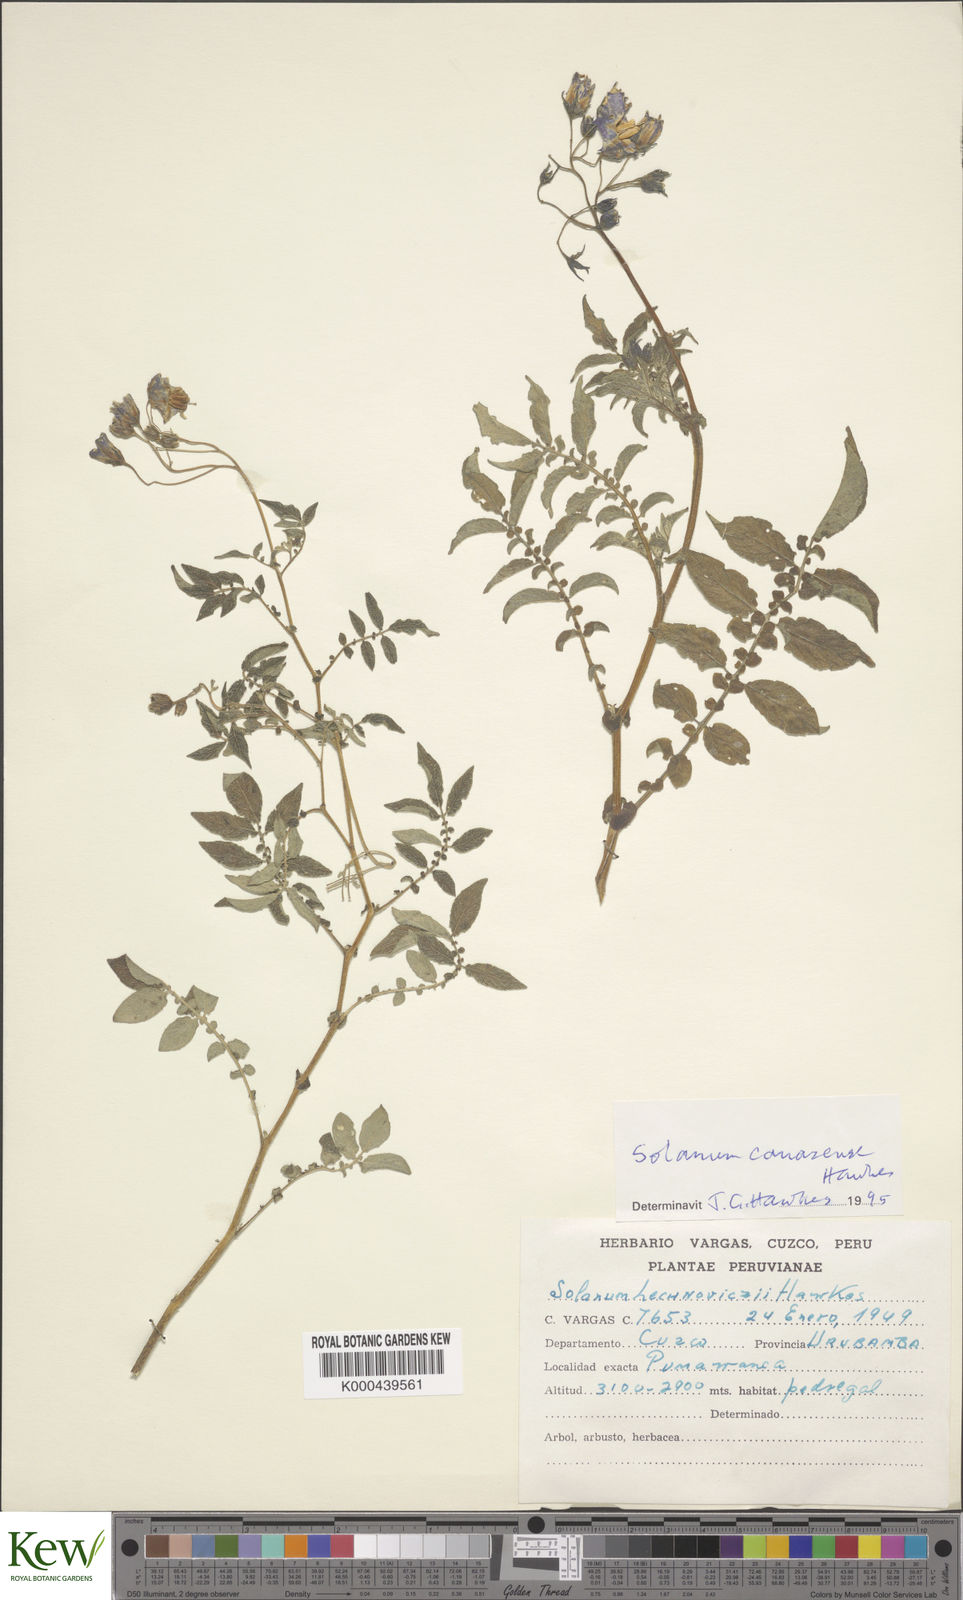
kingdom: Plantae
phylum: Tracheophyta
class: Magnoliopsida
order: Solanales
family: Solanaceae
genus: Solanum
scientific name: Solanum candolleanum
